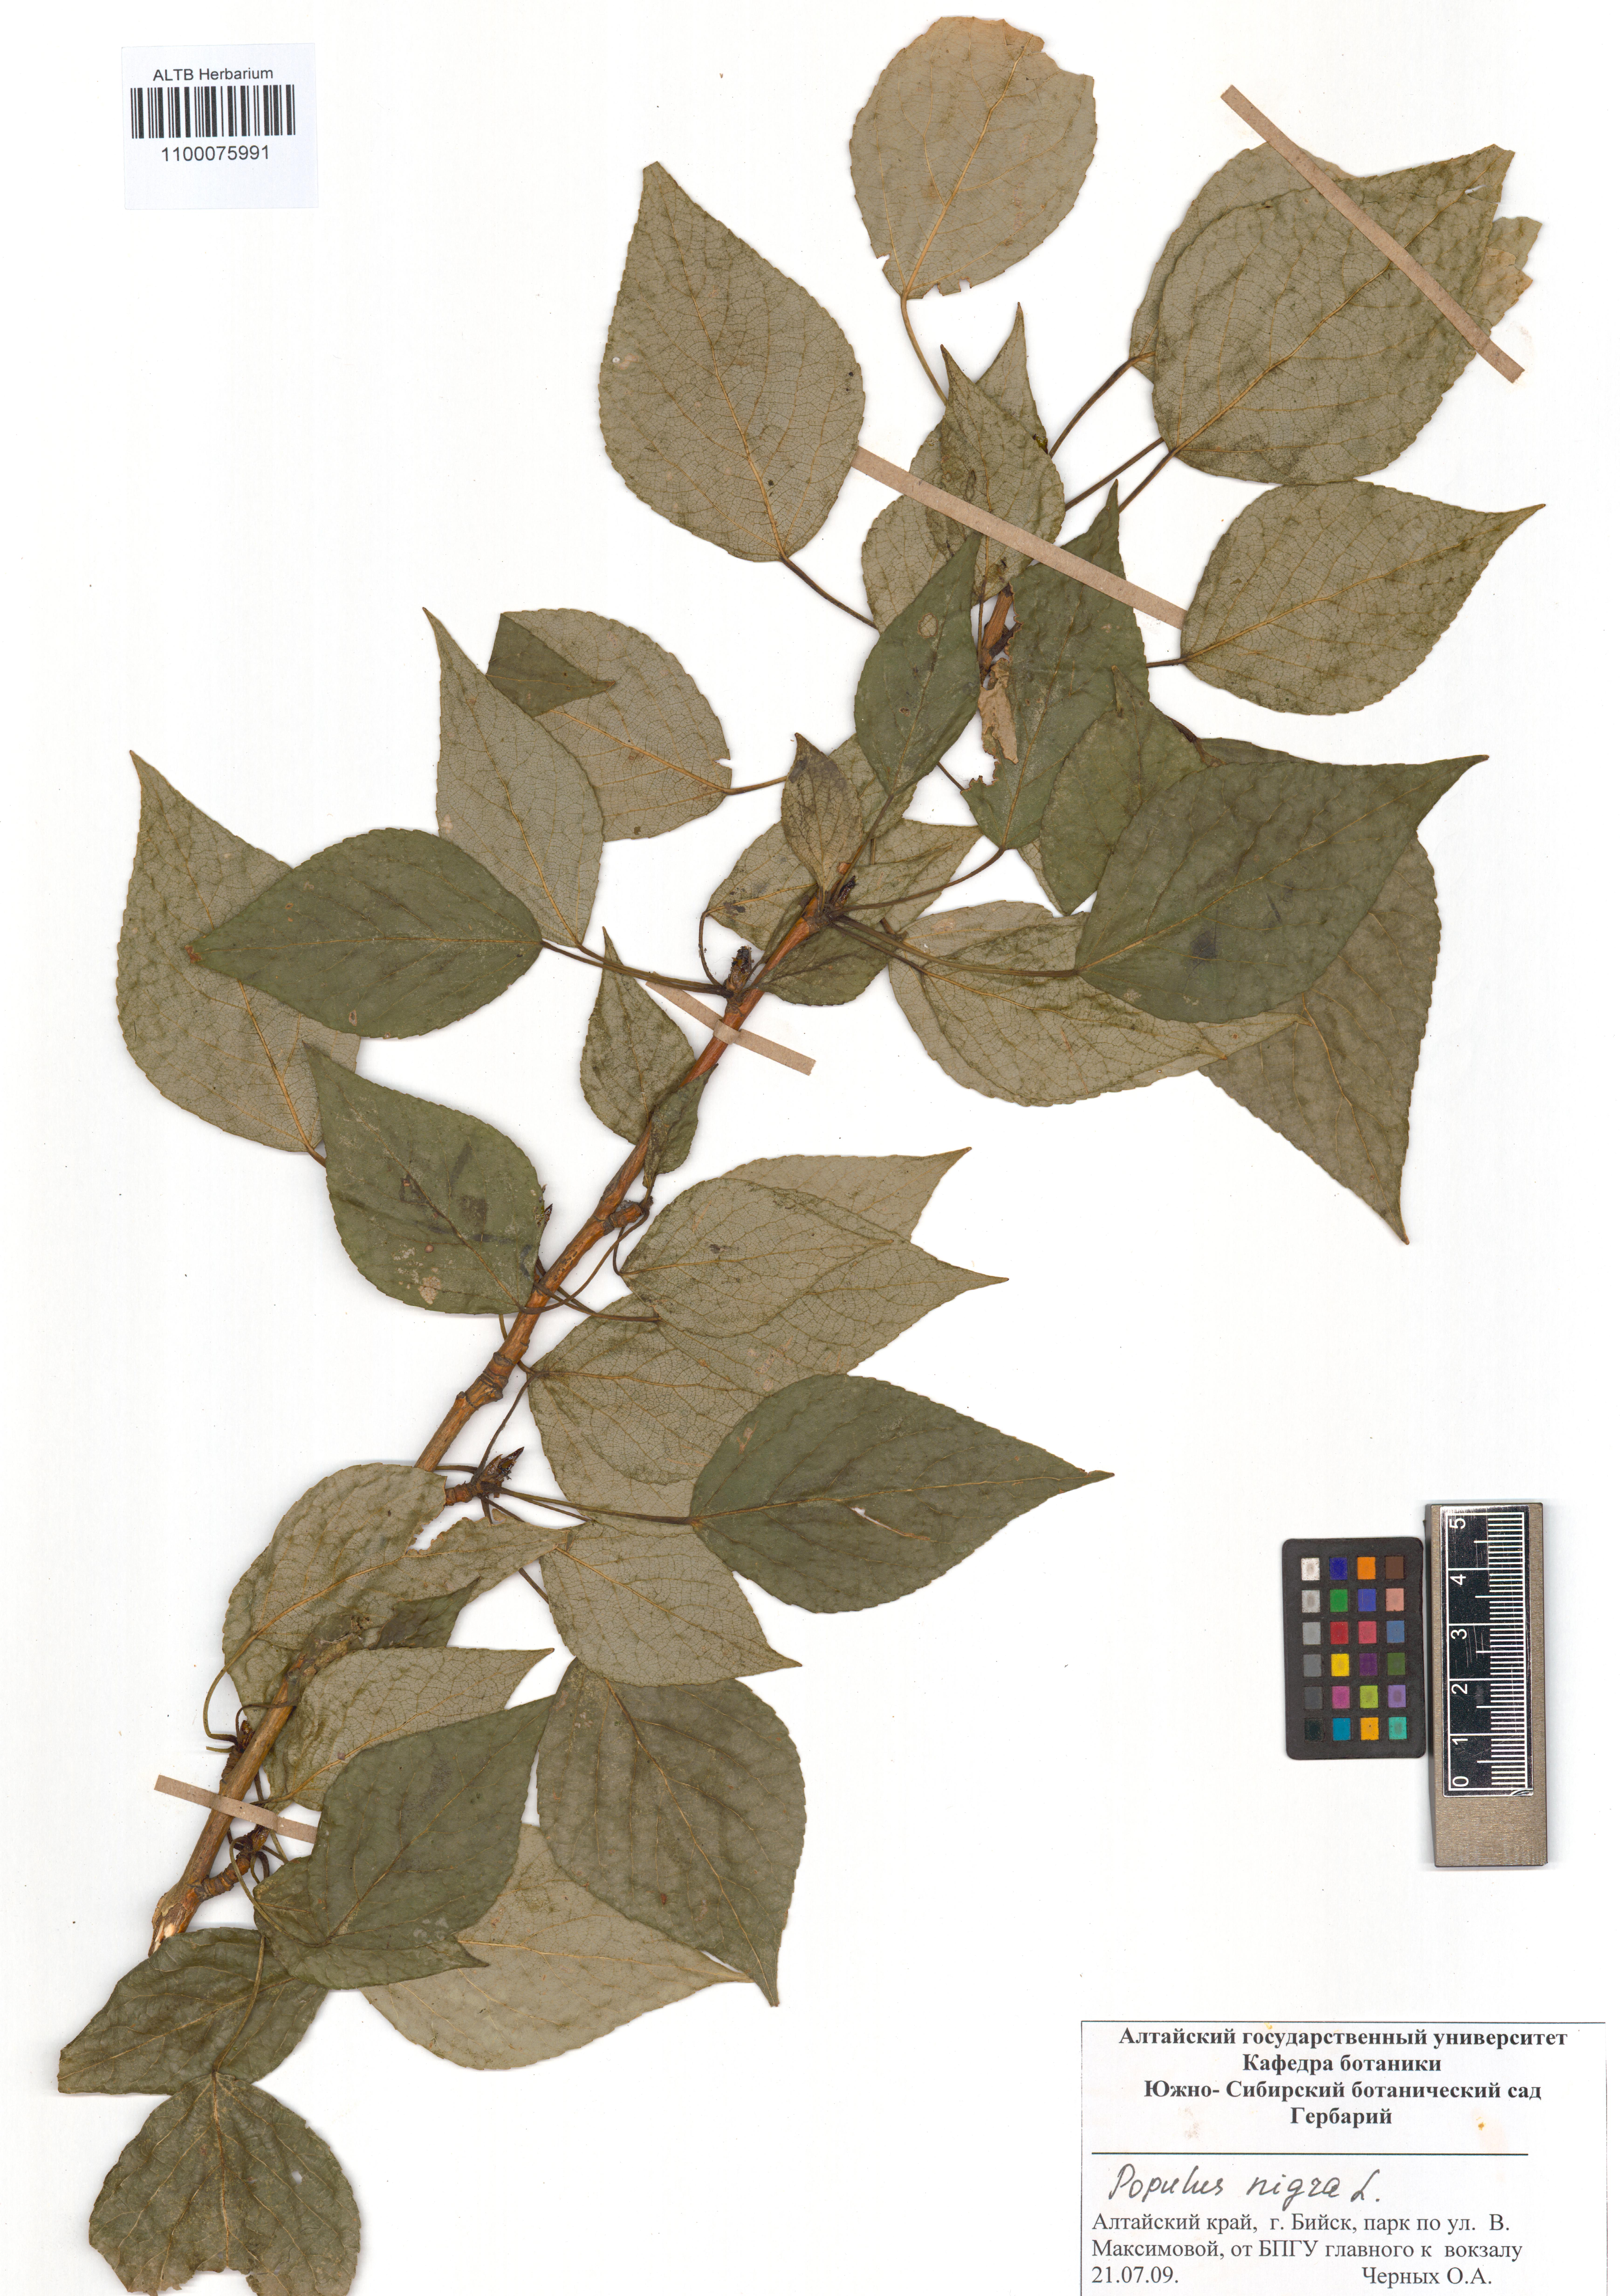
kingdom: Plantae
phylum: Tracheophyta
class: Magnoliopsida
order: Malpighiales
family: Salicaceae
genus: Populus
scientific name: Populus nigra
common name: Black poplar
